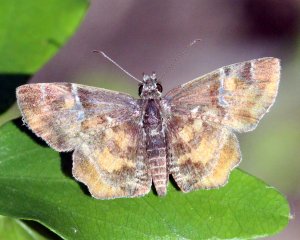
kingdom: Animalia
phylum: Arthropoda
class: Insecta
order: Lepidoptera
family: Hesperiidae
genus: Systasea
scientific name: Systasea pulverulenta
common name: Texas Powdered-Skipper
